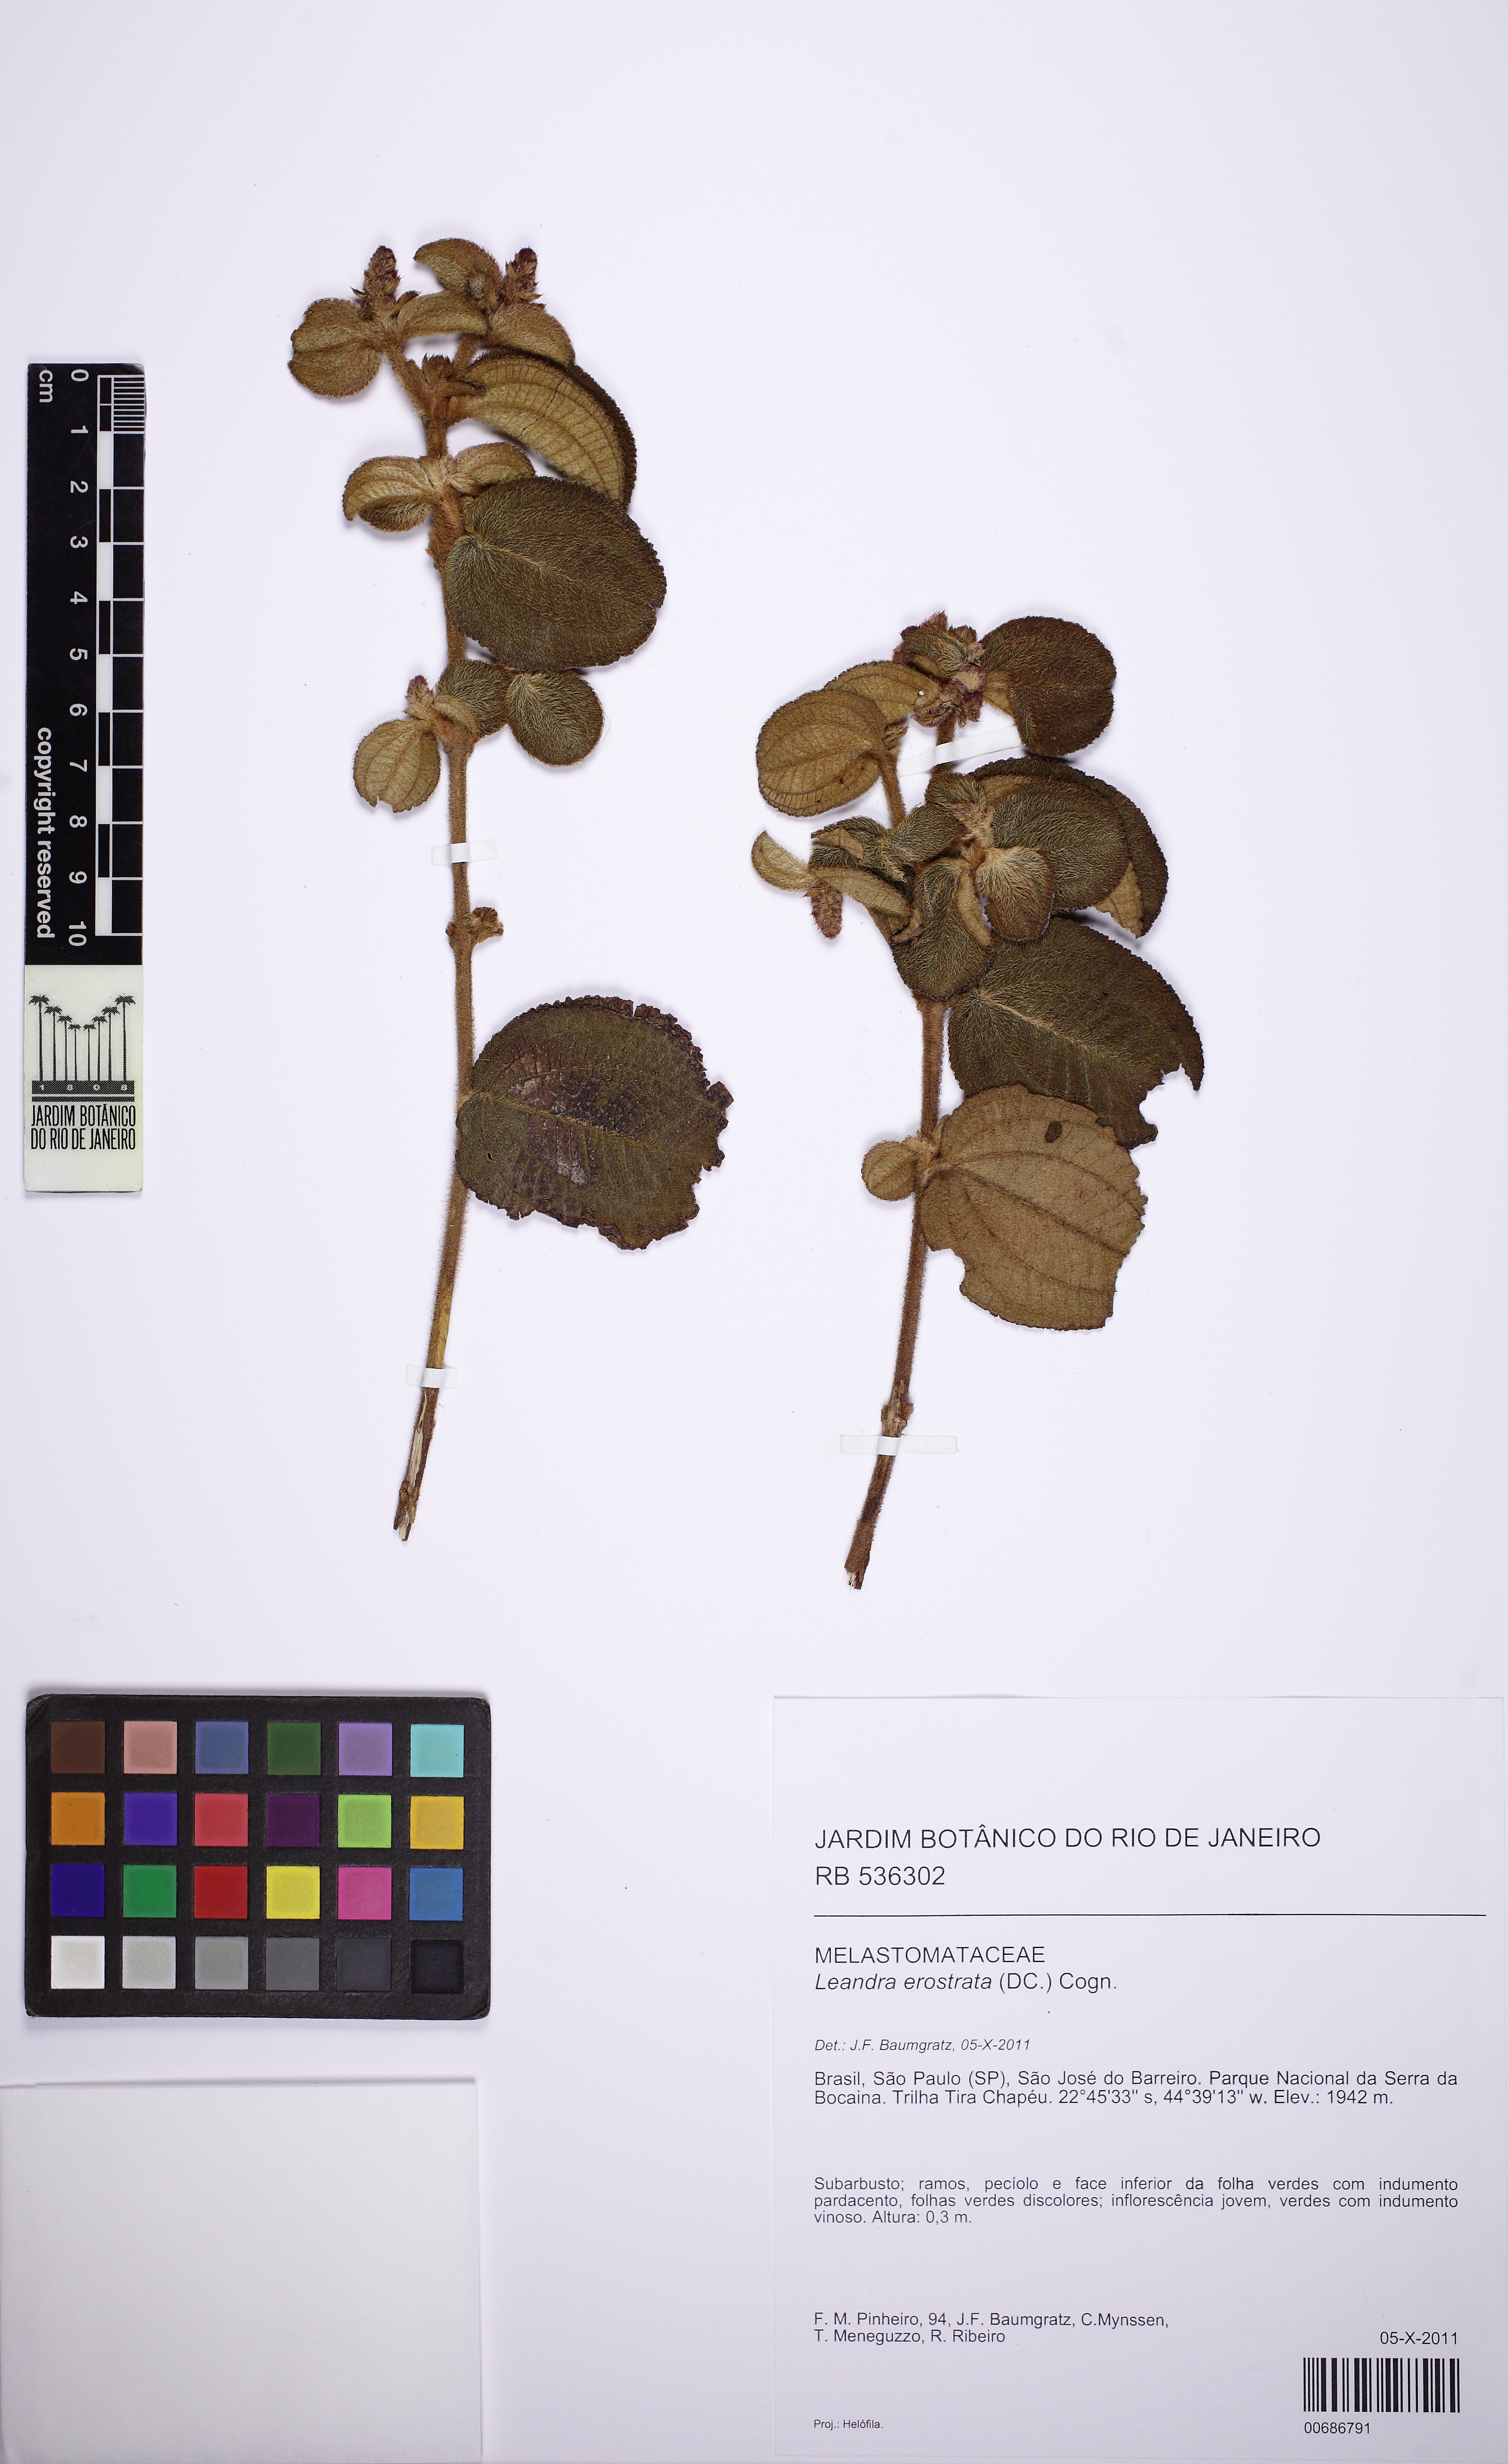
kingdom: Plantae
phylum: Tracheophyta
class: Magnoliopsida
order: Myrtales
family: Melastomataceae
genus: Miconia
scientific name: Miconia erostrata
